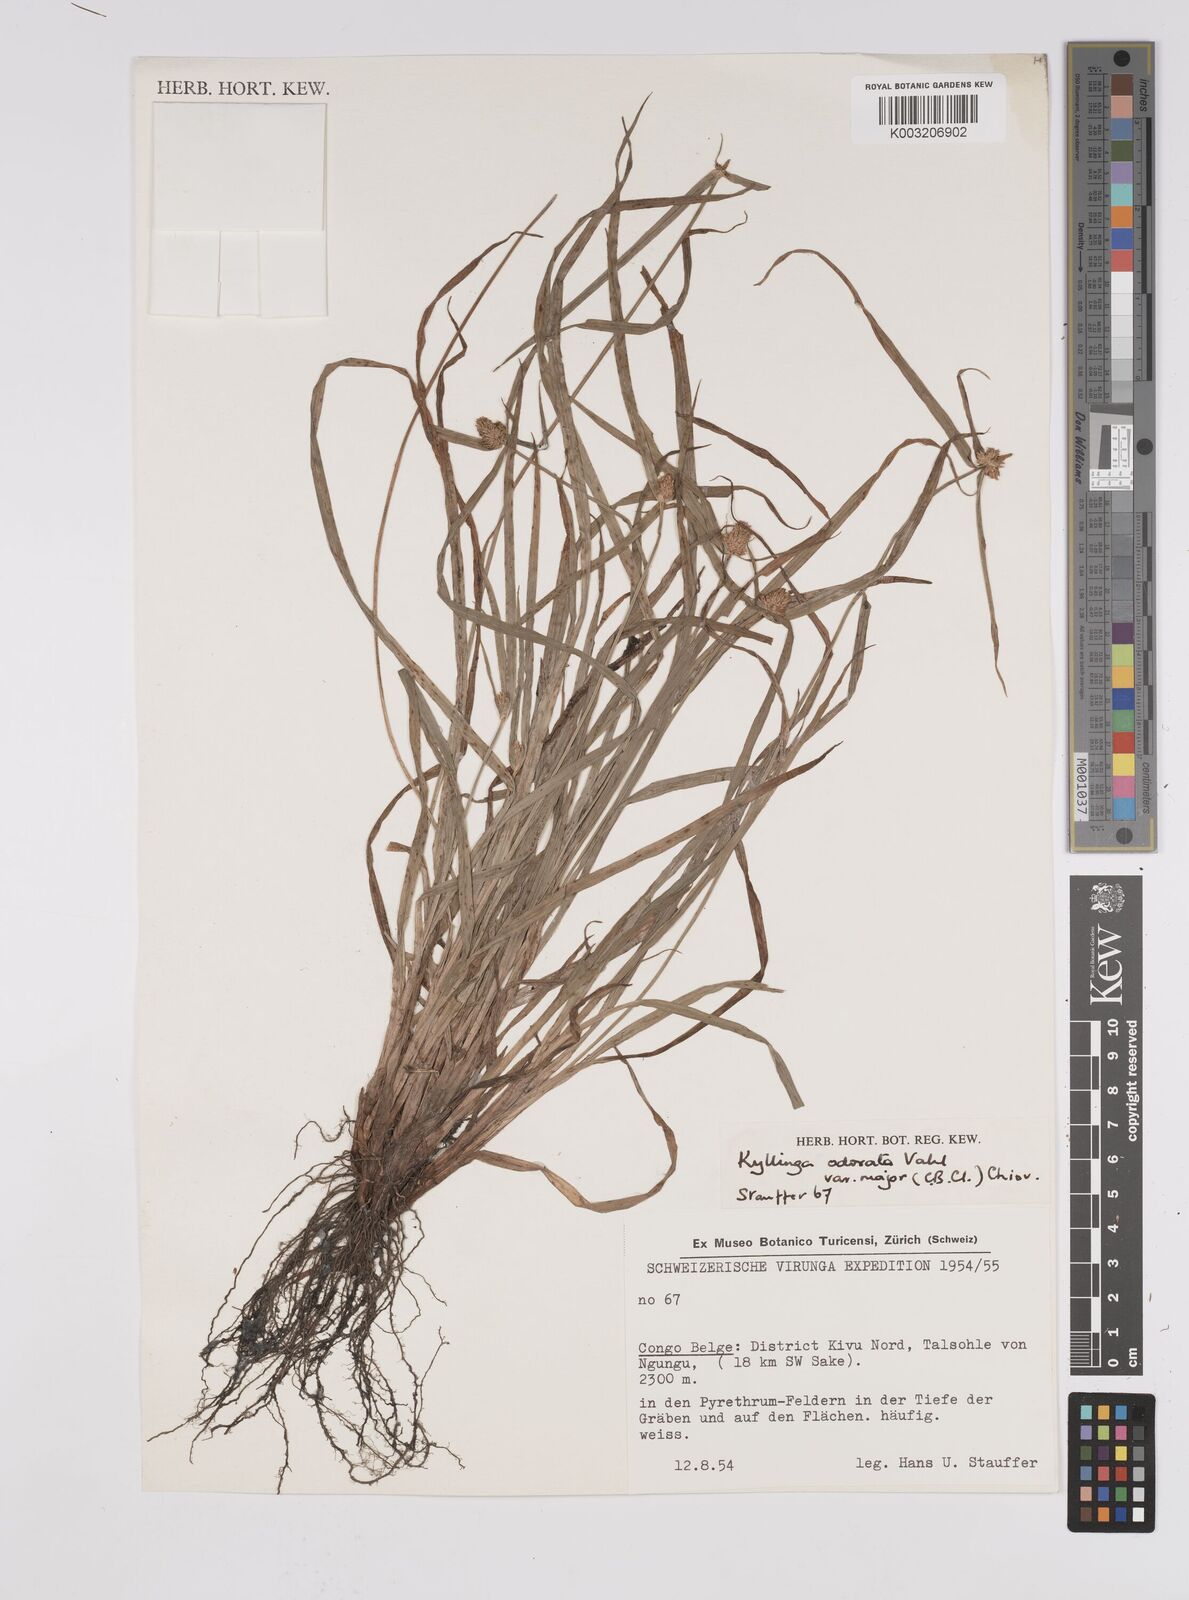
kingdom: Plantae
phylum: Tracheophyta
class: Liliopsida
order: Poales
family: Cyperaceae
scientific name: Cyperaceae
